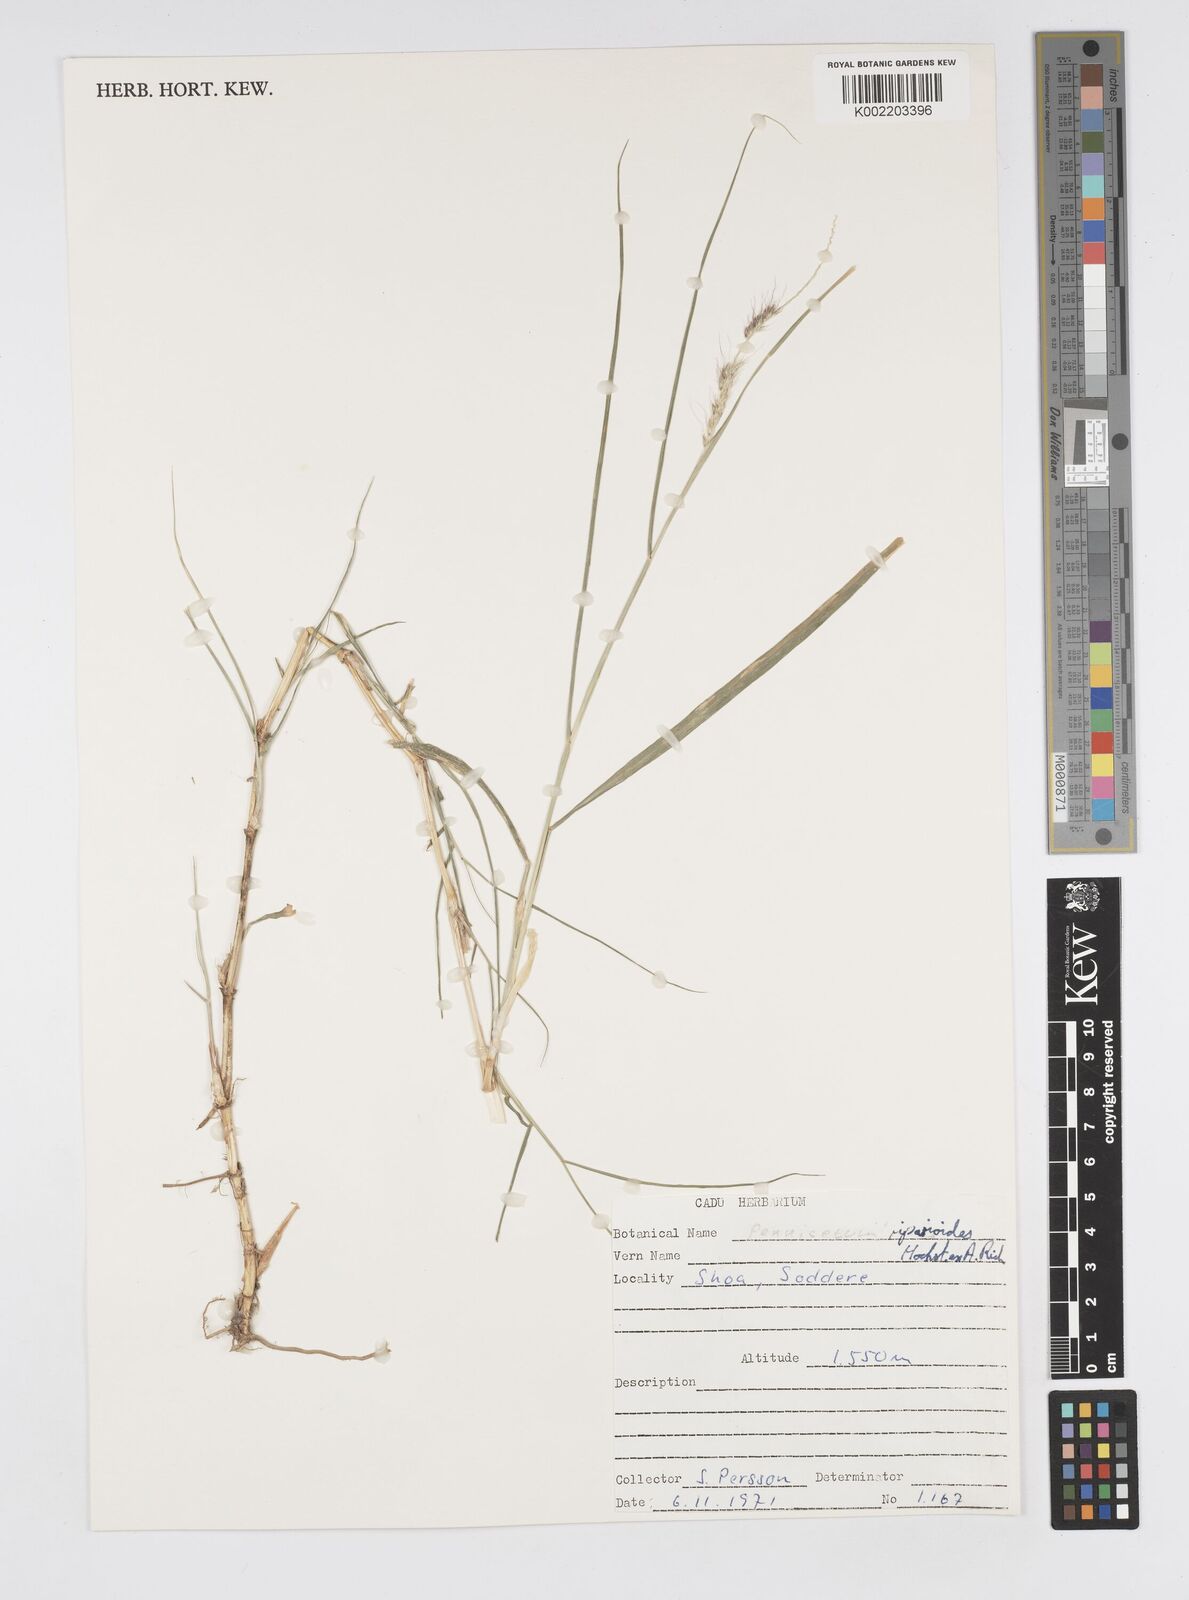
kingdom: Plantae
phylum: Tracheophyta
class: Liliopsida
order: Poales
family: Poaceae
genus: Cenchrus
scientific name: Cenchrus caudatus
